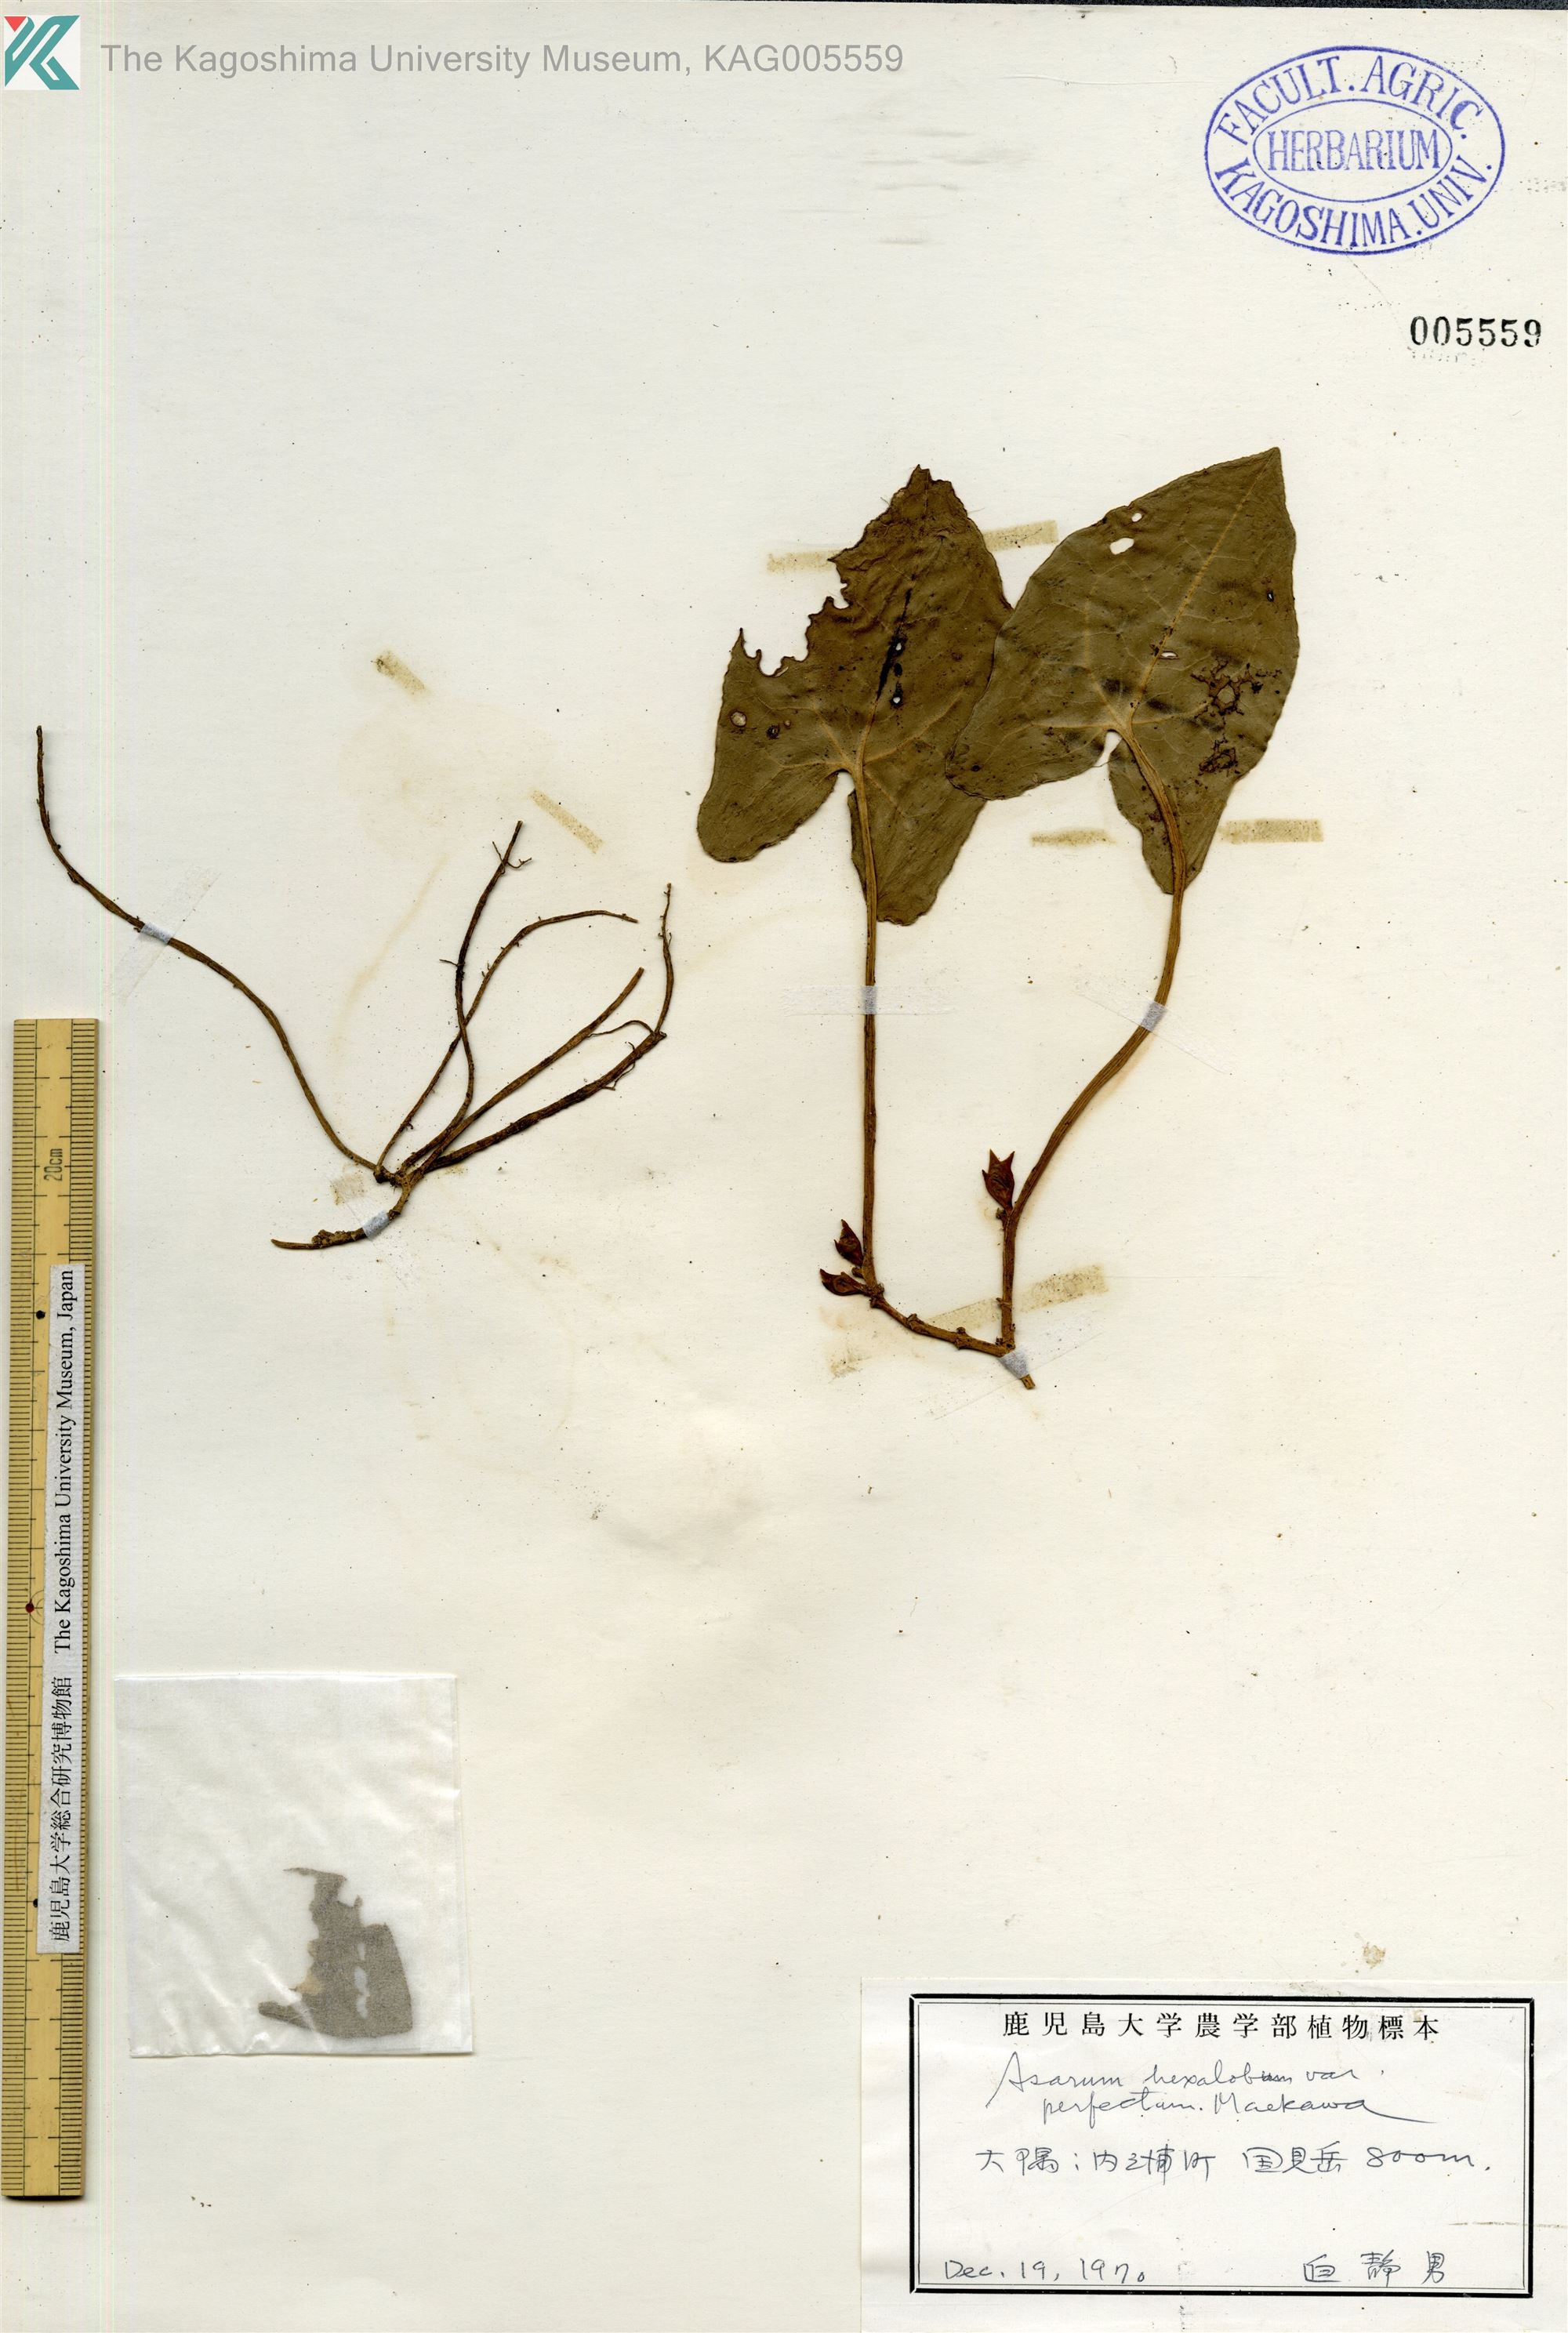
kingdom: Plantae
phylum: Tracheophyta
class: Magnoliopsida
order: Piperales
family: Aristolochiaceae
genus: Asarum
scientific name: Asarum hexalobum
